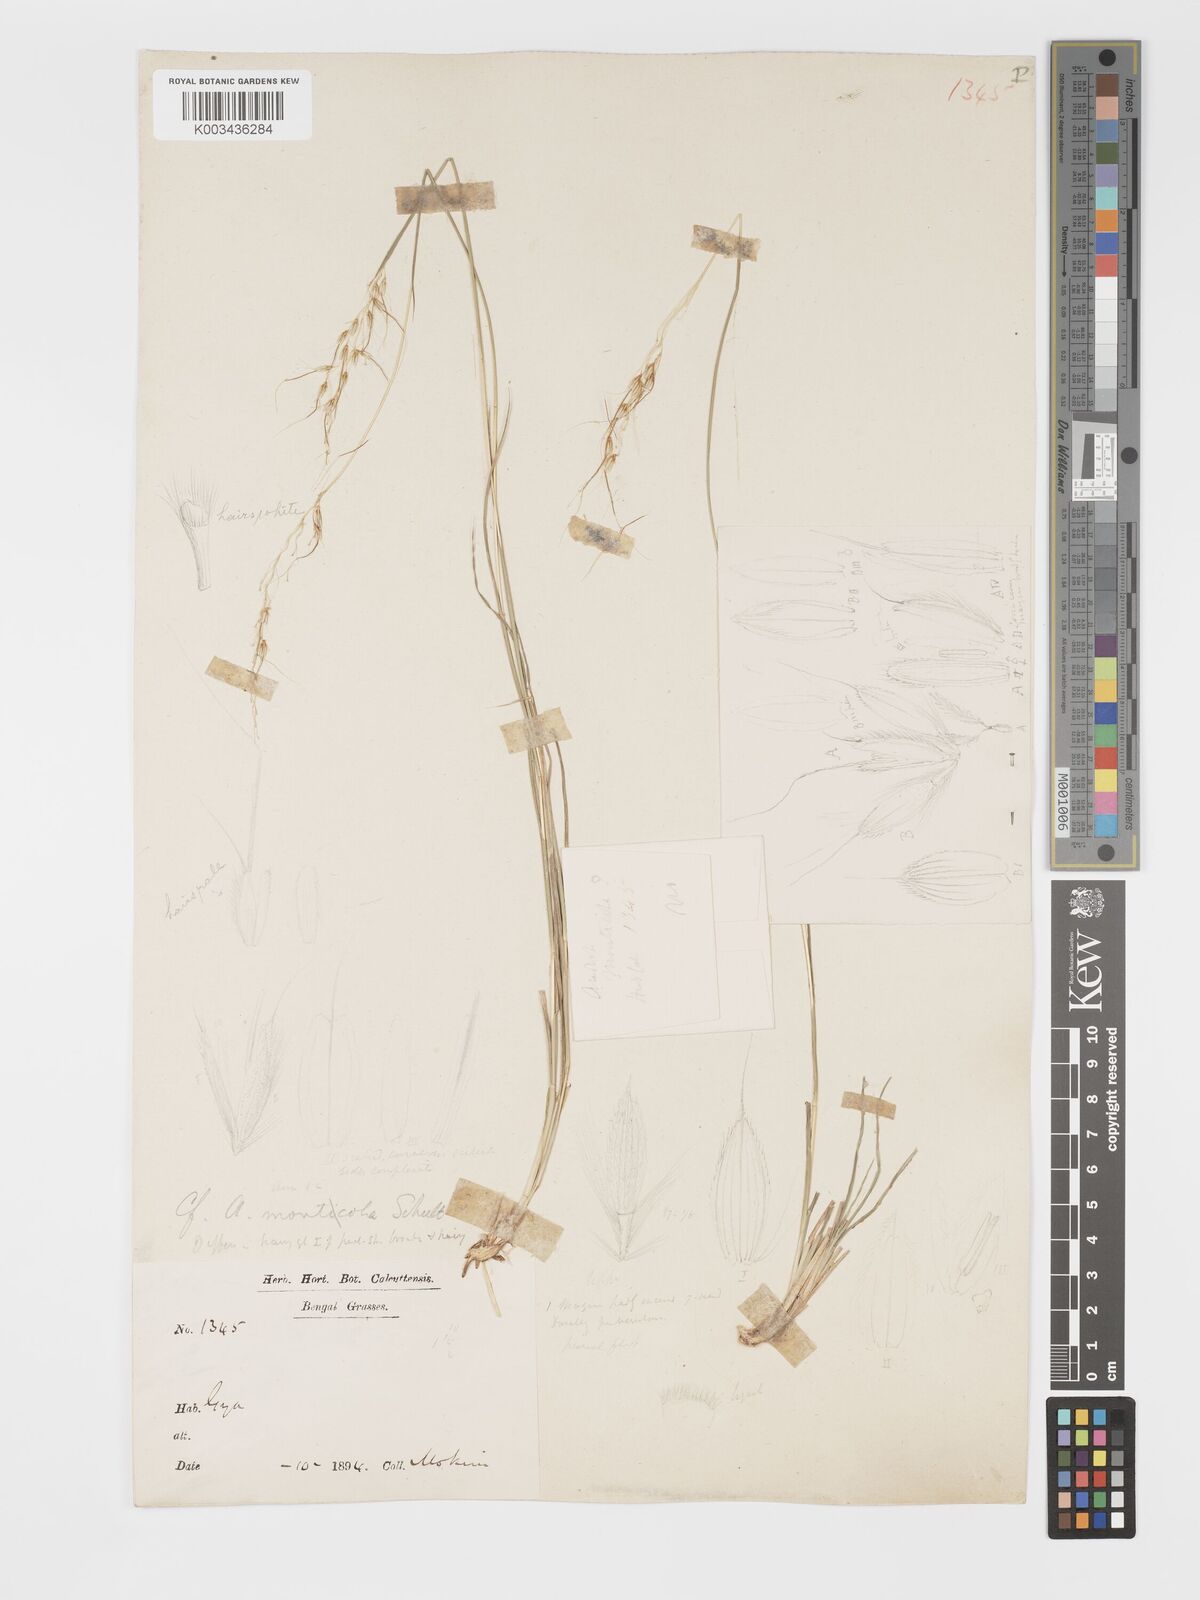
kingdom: Plantae
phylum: Tracheophyta
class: Liliopsida
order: Poales
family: Poaceae
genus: Chrysopogon
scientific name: Chrysopogon fulvus
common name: Red false beardgrass
